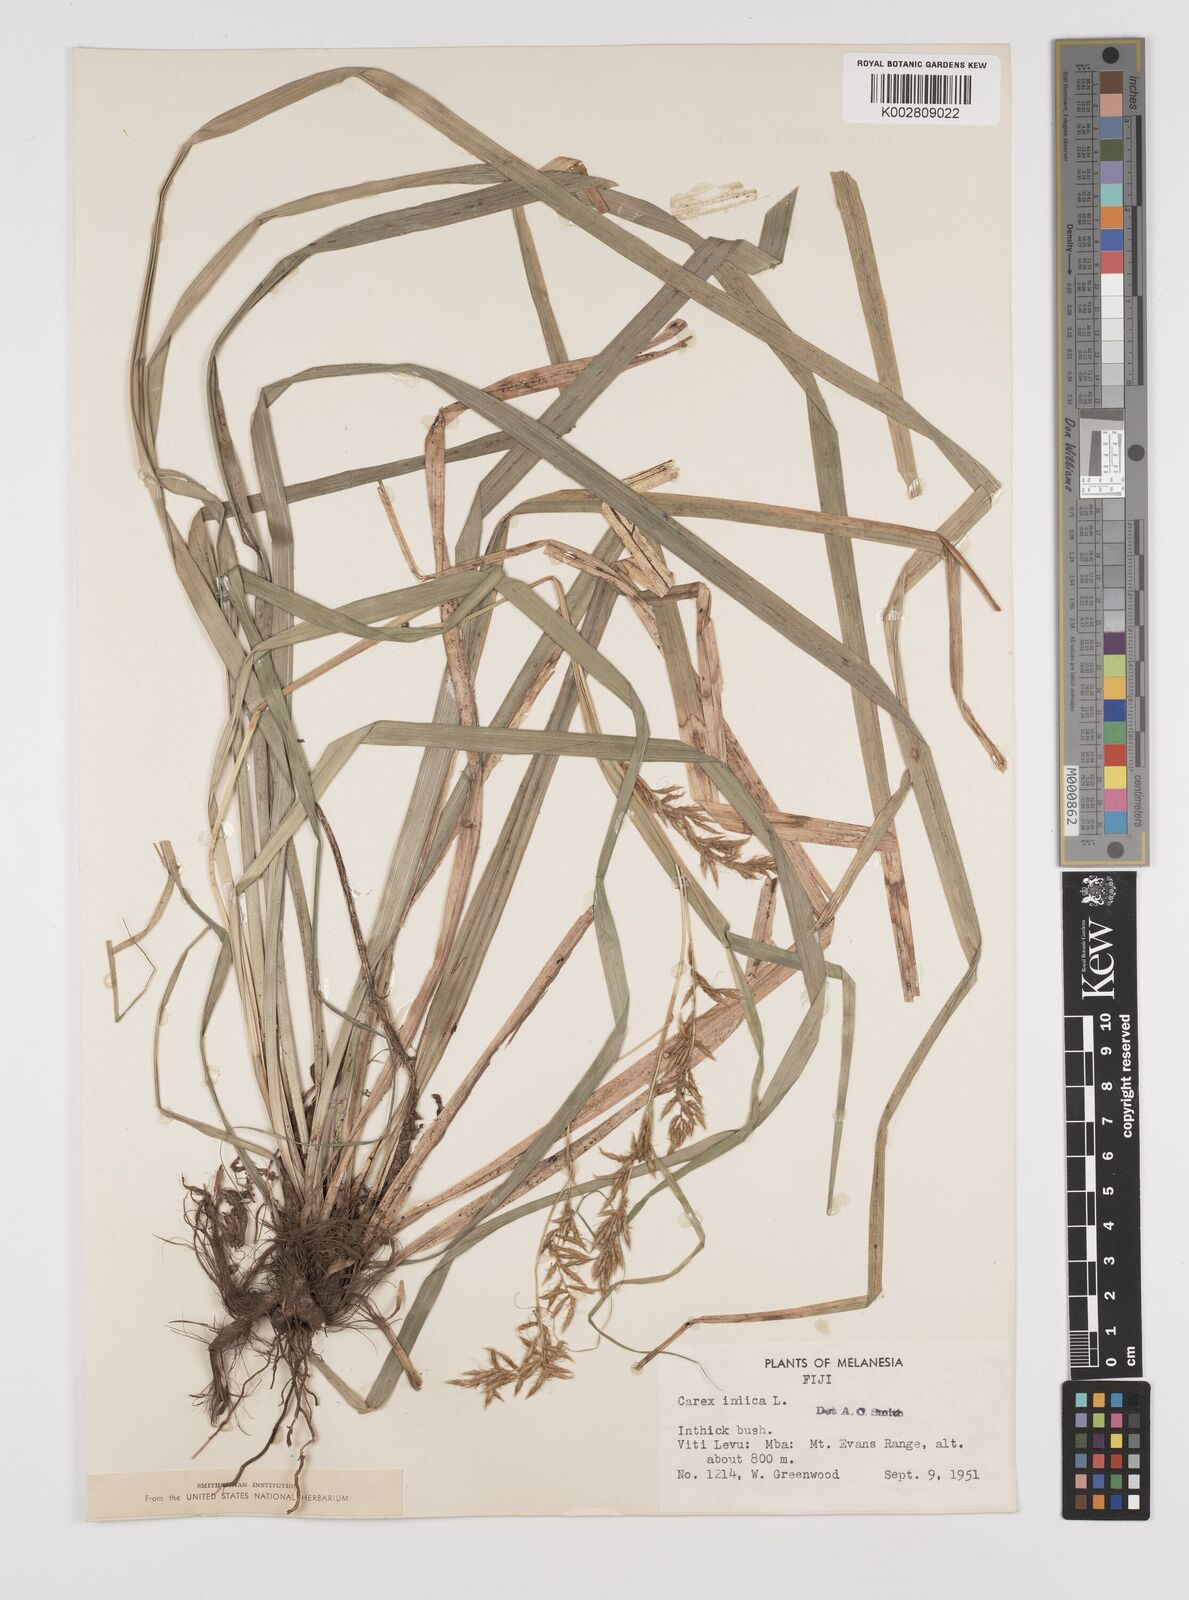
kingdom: Plantae
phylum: Tracheophyta
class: Liliopsida
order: Poales
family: Cyperaceae
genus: Carex
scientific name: Carex indica
